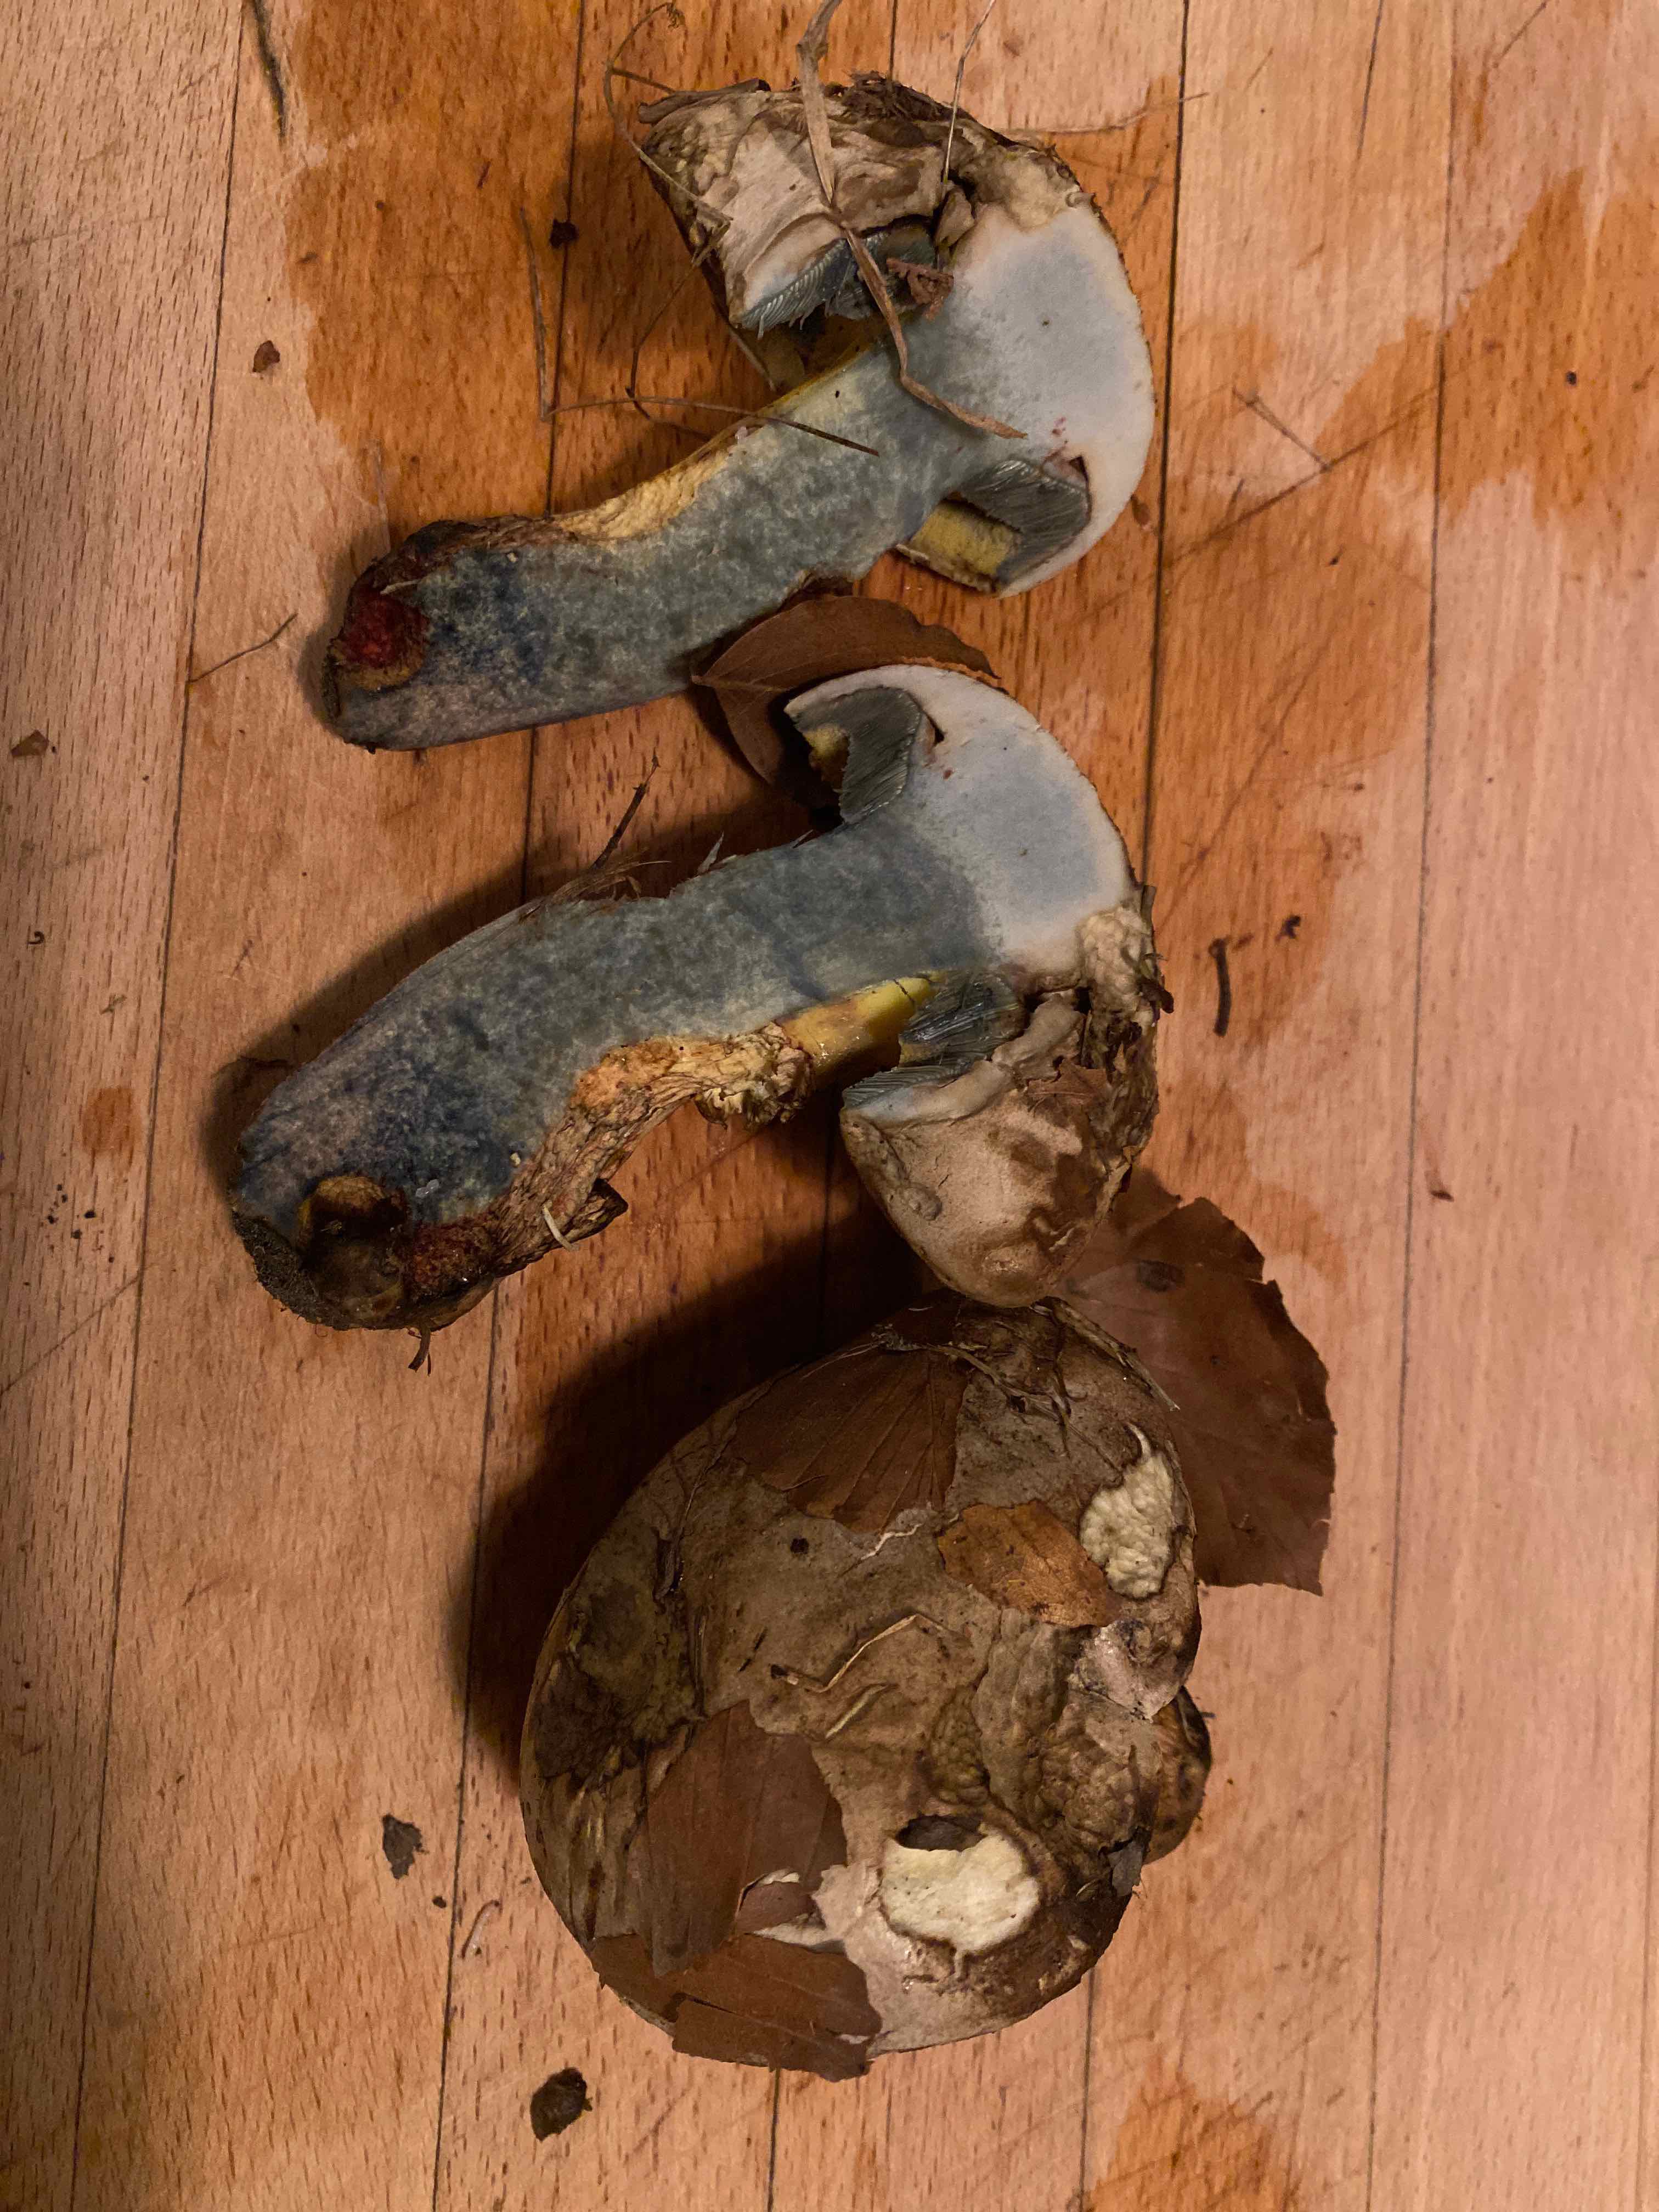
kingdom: Fungi
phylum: Basidiomycota
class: Agaricomycetes
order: Boletales
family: Boletaceae
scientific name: Boletaceae
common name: rørhatfamilien
